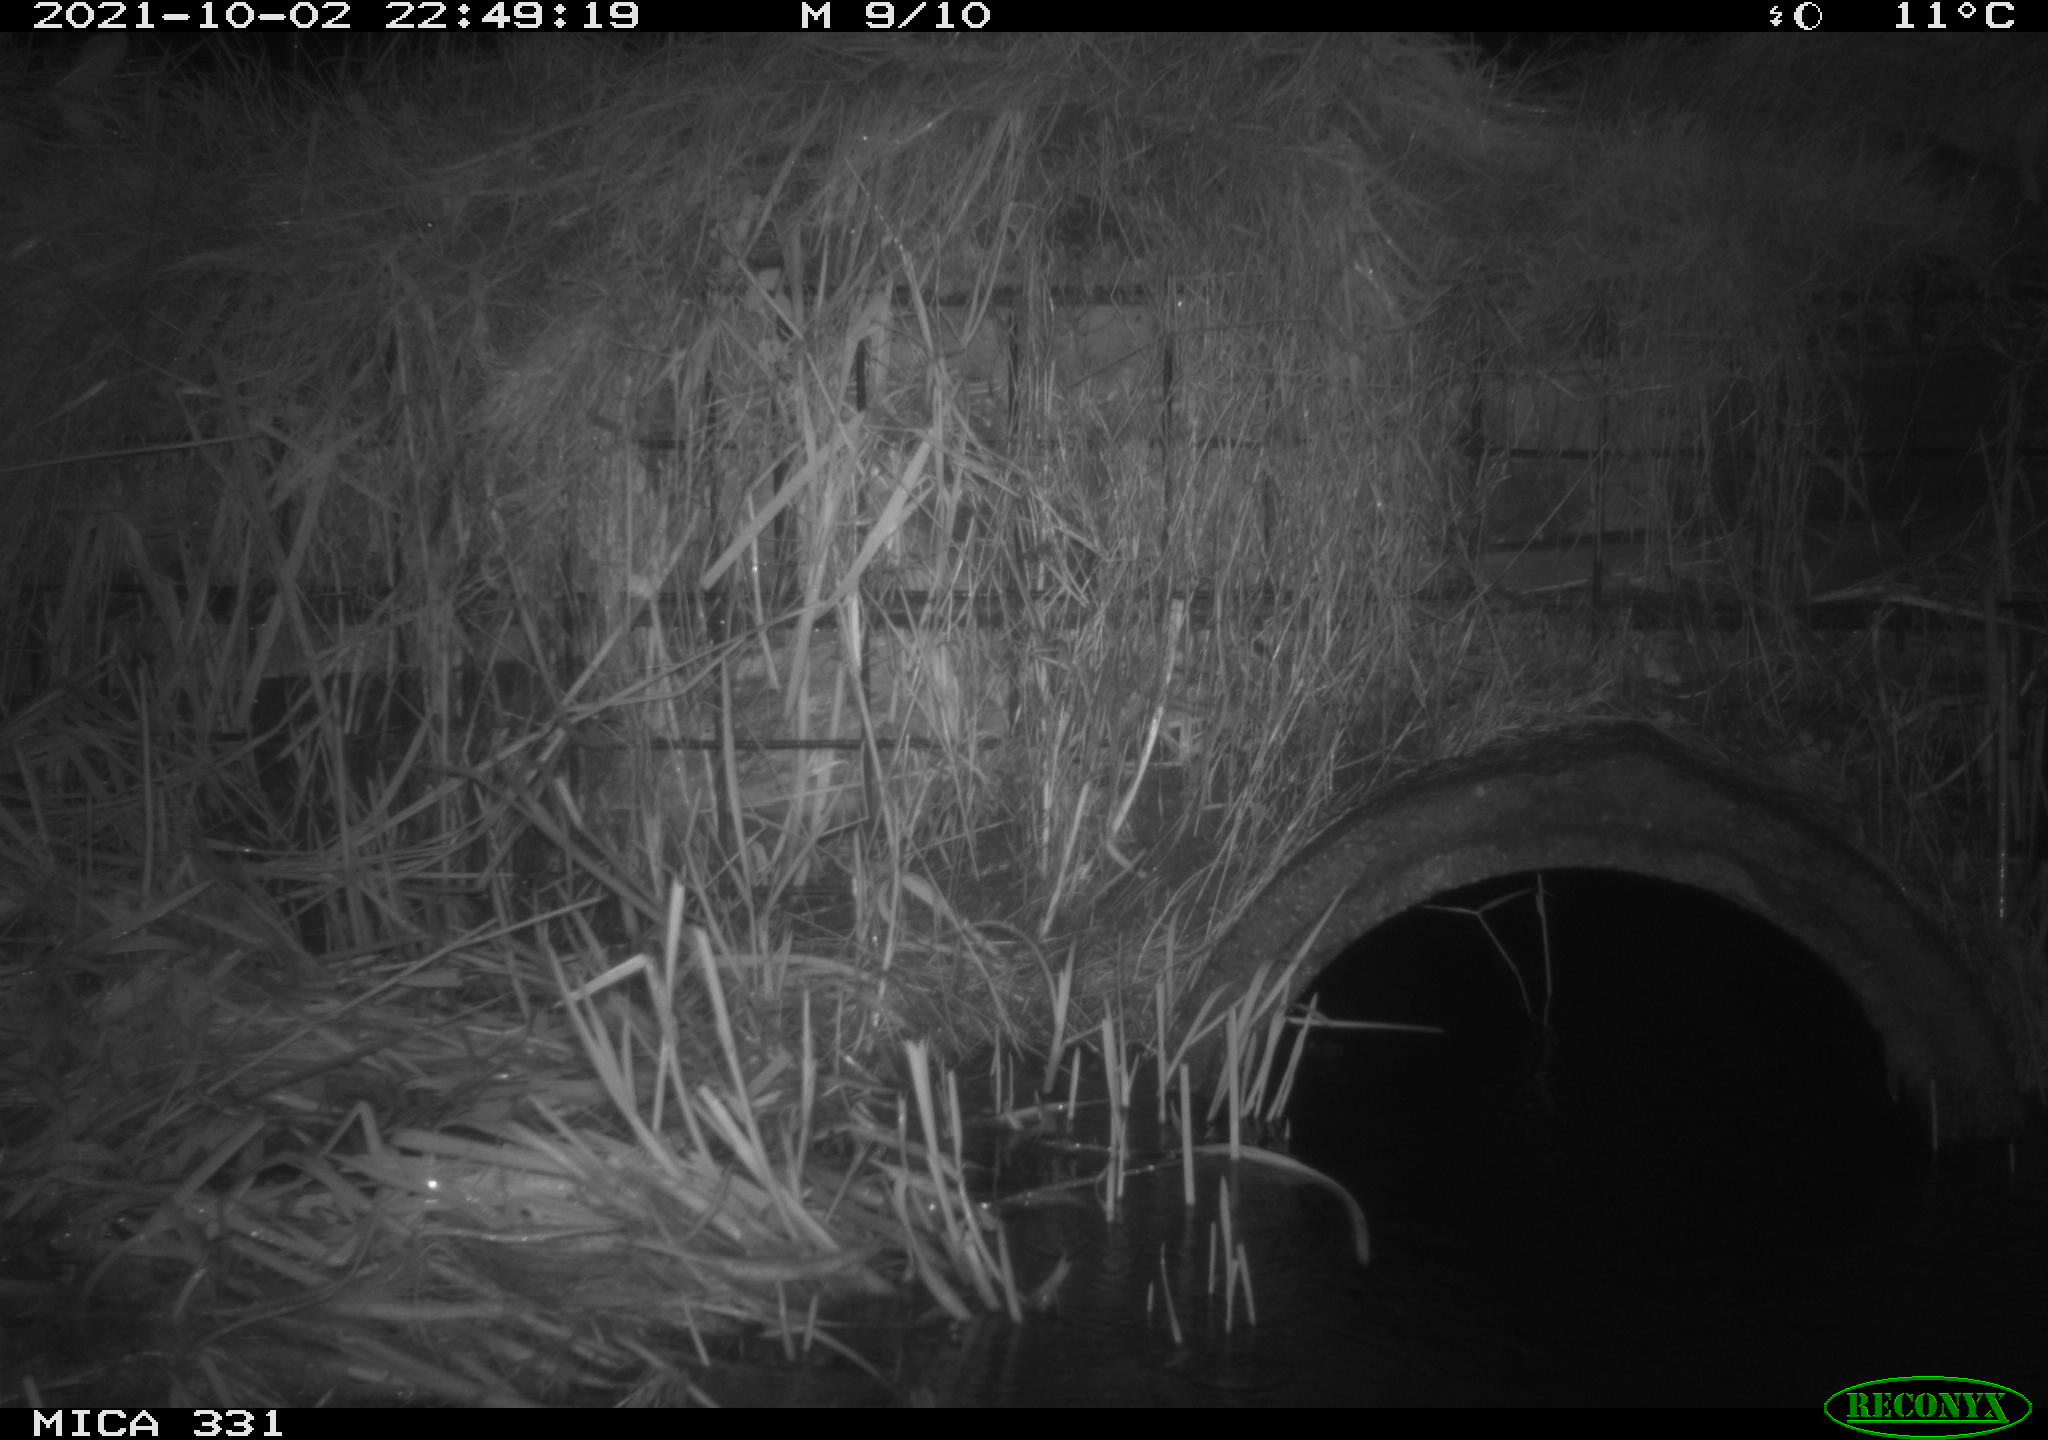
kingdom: Animalia
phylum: Chordata
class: Mammalia
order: Rodentia
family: Muridae
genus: Rattus
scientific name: Rattus norvegicus
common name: Brown rat
